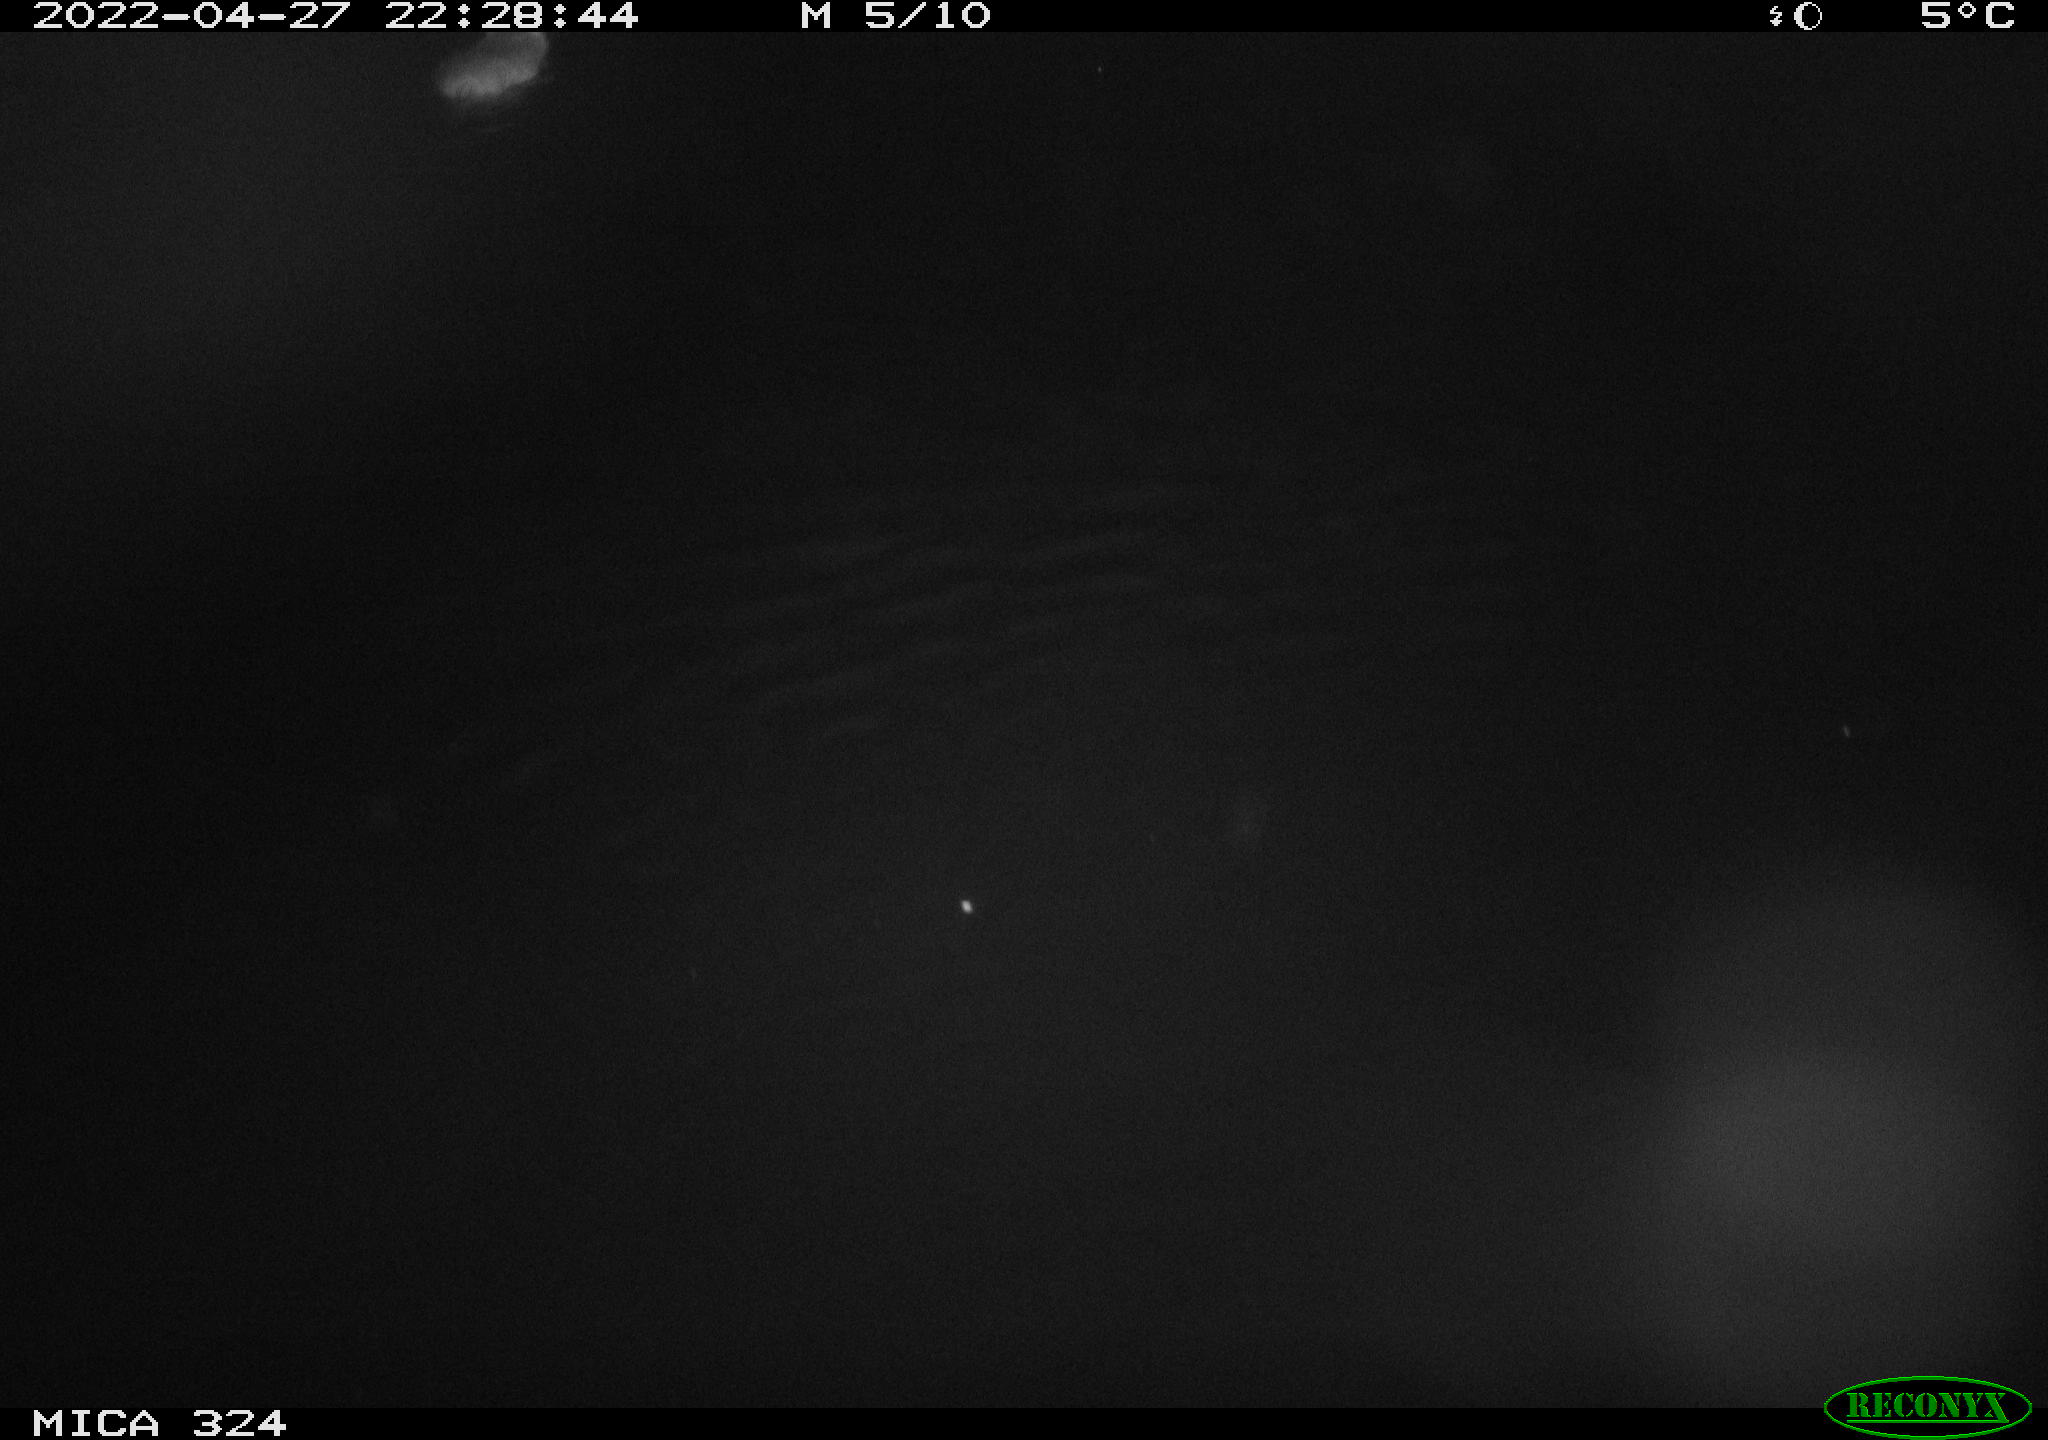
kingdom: Animalia
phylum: Chordata
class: Mammalia
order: Rodentia
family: Cricetidae
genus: Ondatra
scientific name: Ondatra zibethicus
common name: Muskrat
